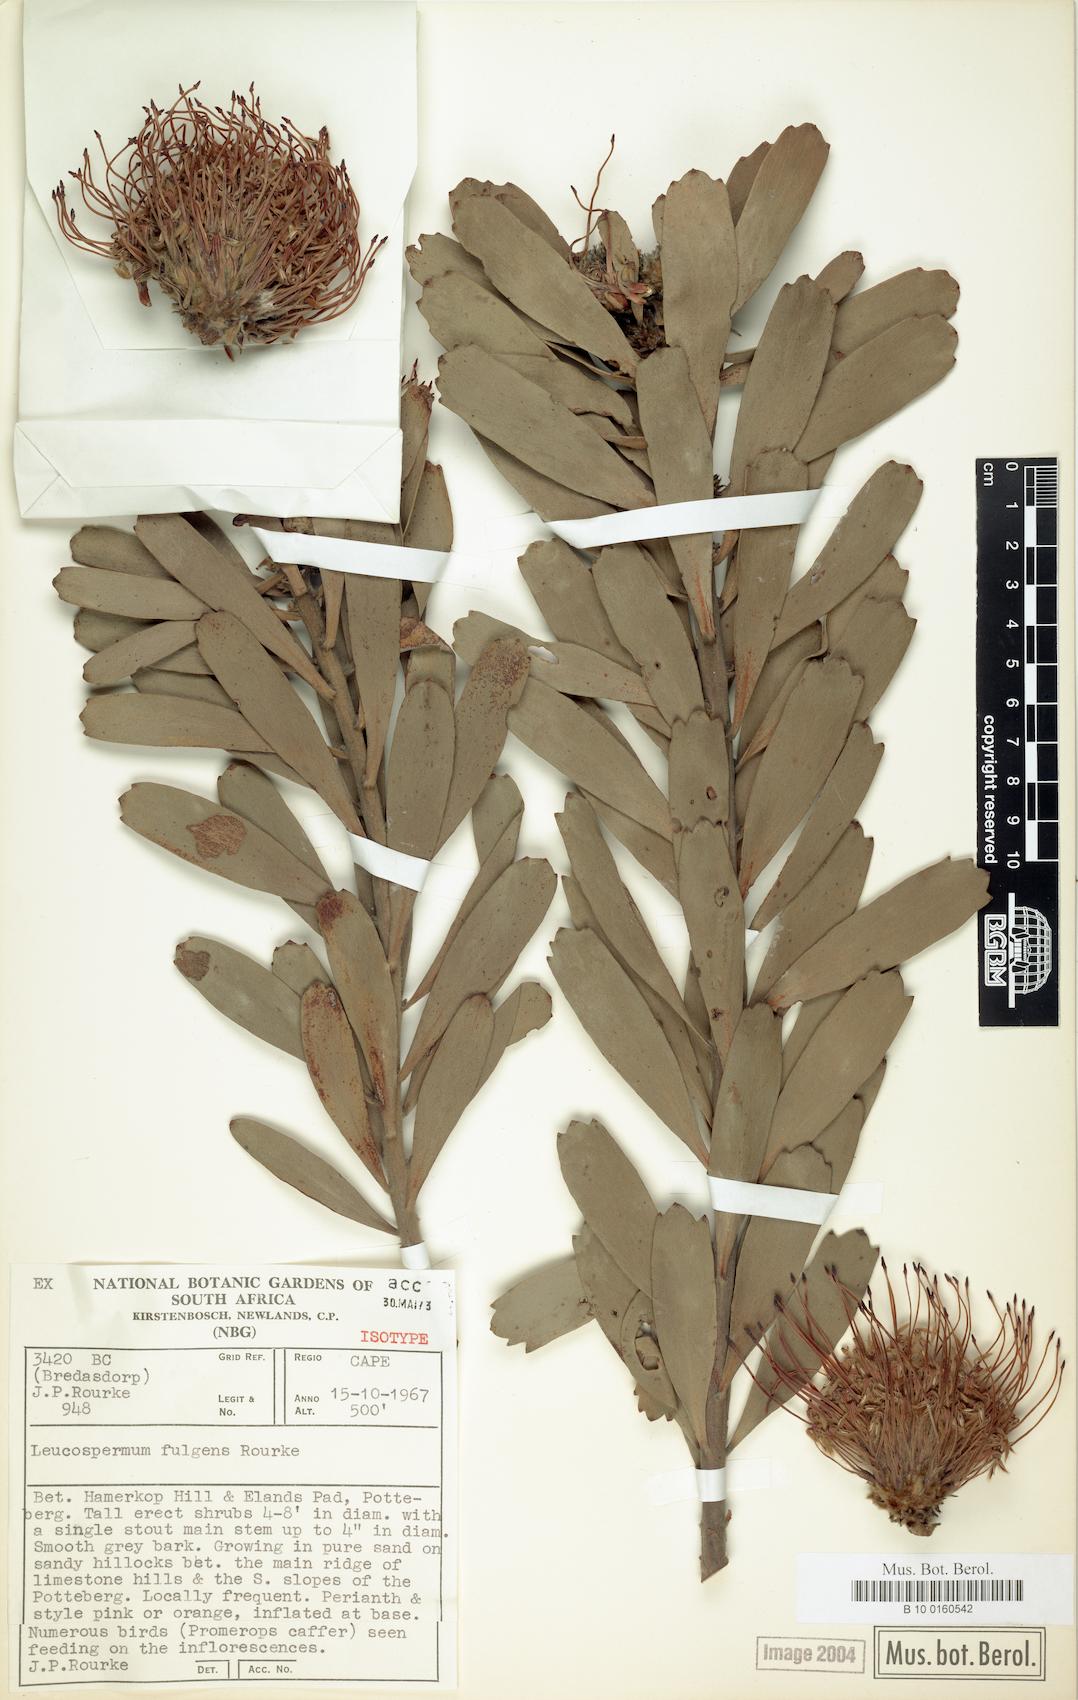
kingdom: Plantae
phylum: Tracheophyta
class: Magnoliopsida
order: Proteales
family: Proteaceae
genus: Leucospermum
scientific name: Leucospermum fulgens
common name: Potberg pincushion
